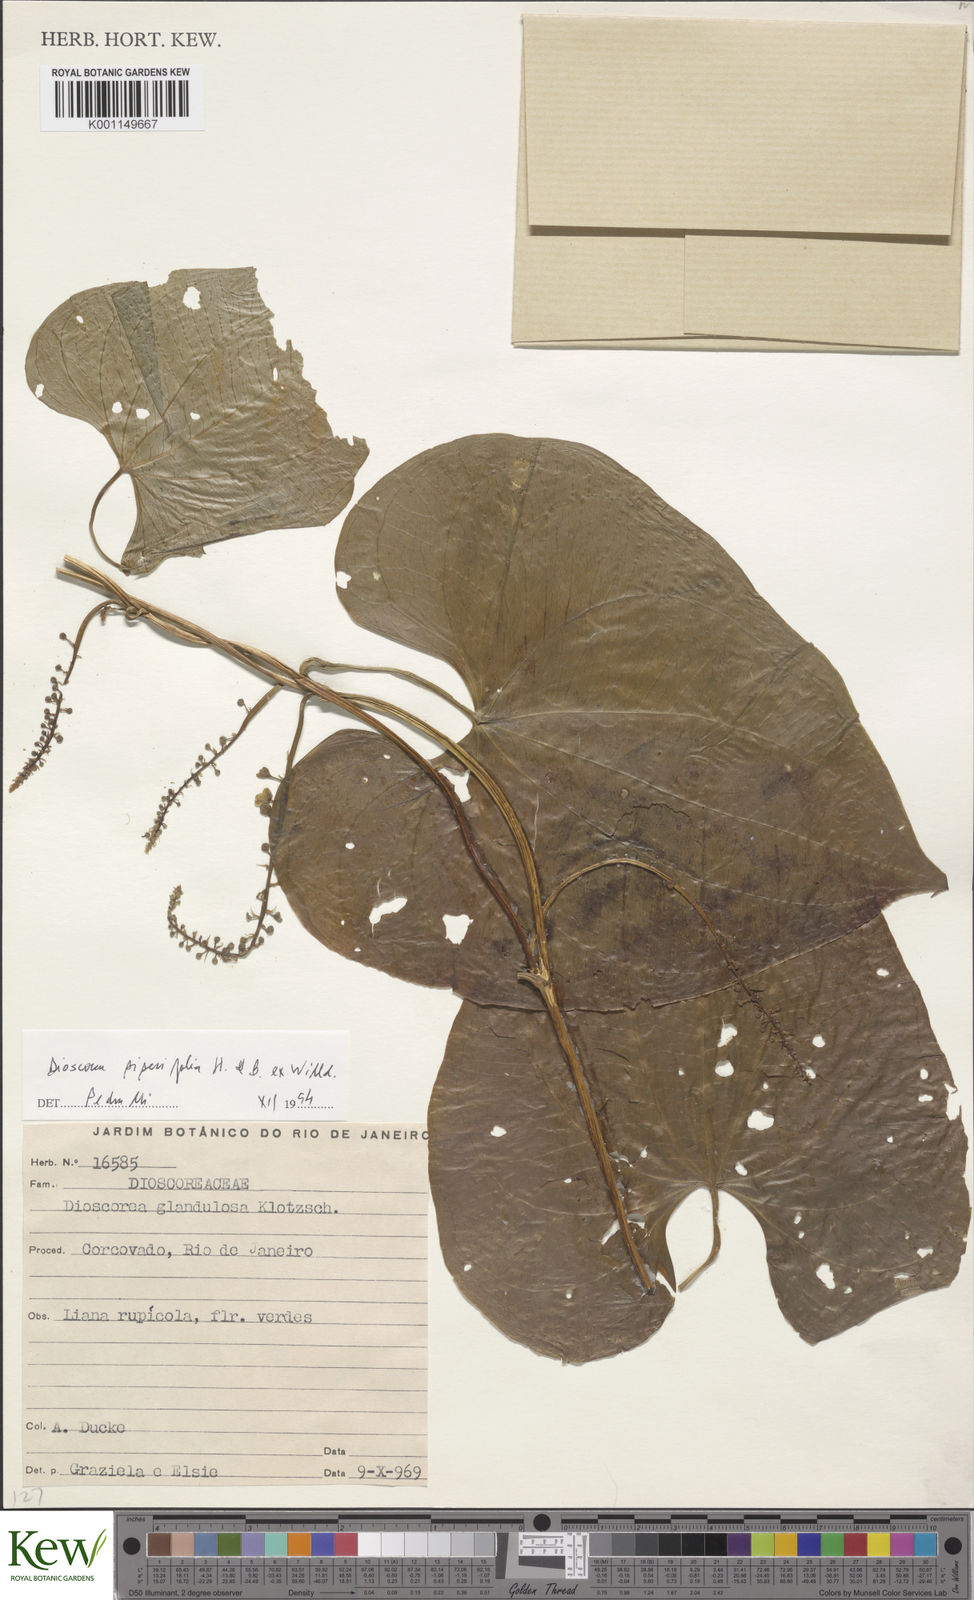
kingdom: Plantae
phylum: Tracheophyta
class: Liliopsida
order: Dioscoreales
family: Dioscoreaceae
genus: Dioscorea
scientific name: Dioscorea glandulosa
